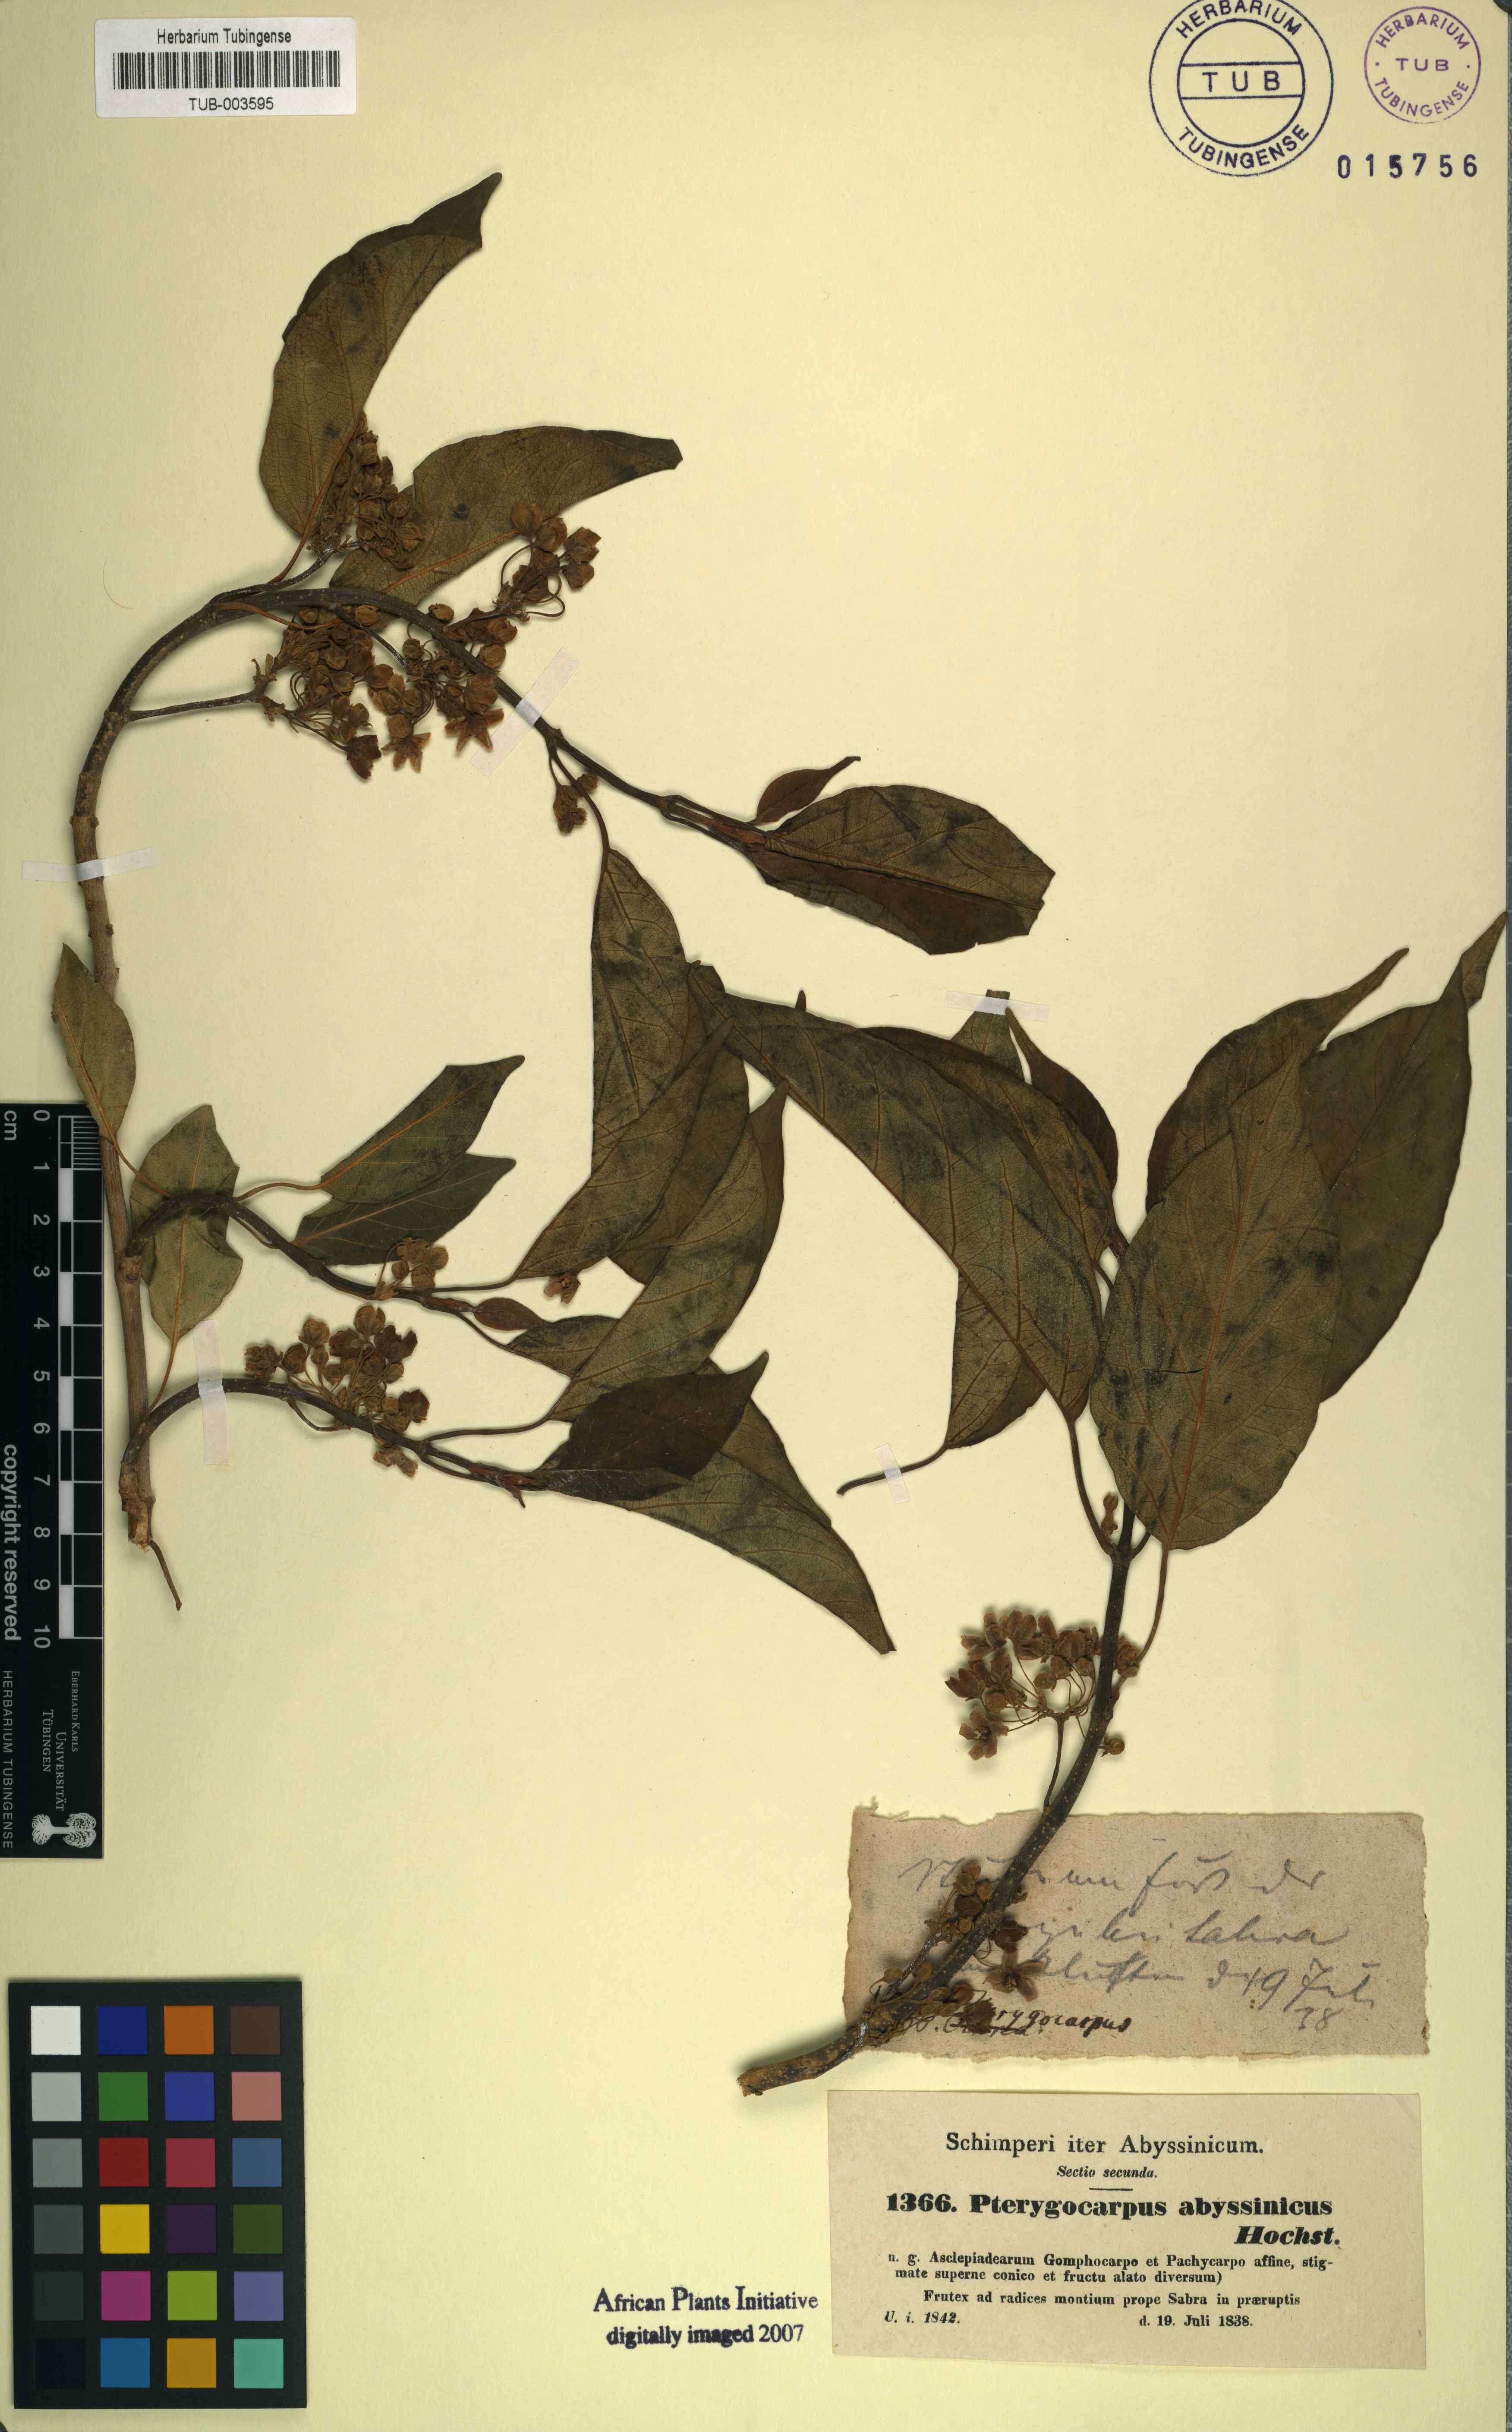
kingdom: Plantae
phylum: Tracheophyta
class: Magnoliopsida
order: Gentianales
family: Apocynaceae
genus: Stephanotis
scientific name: Stephanotis abyssinica
